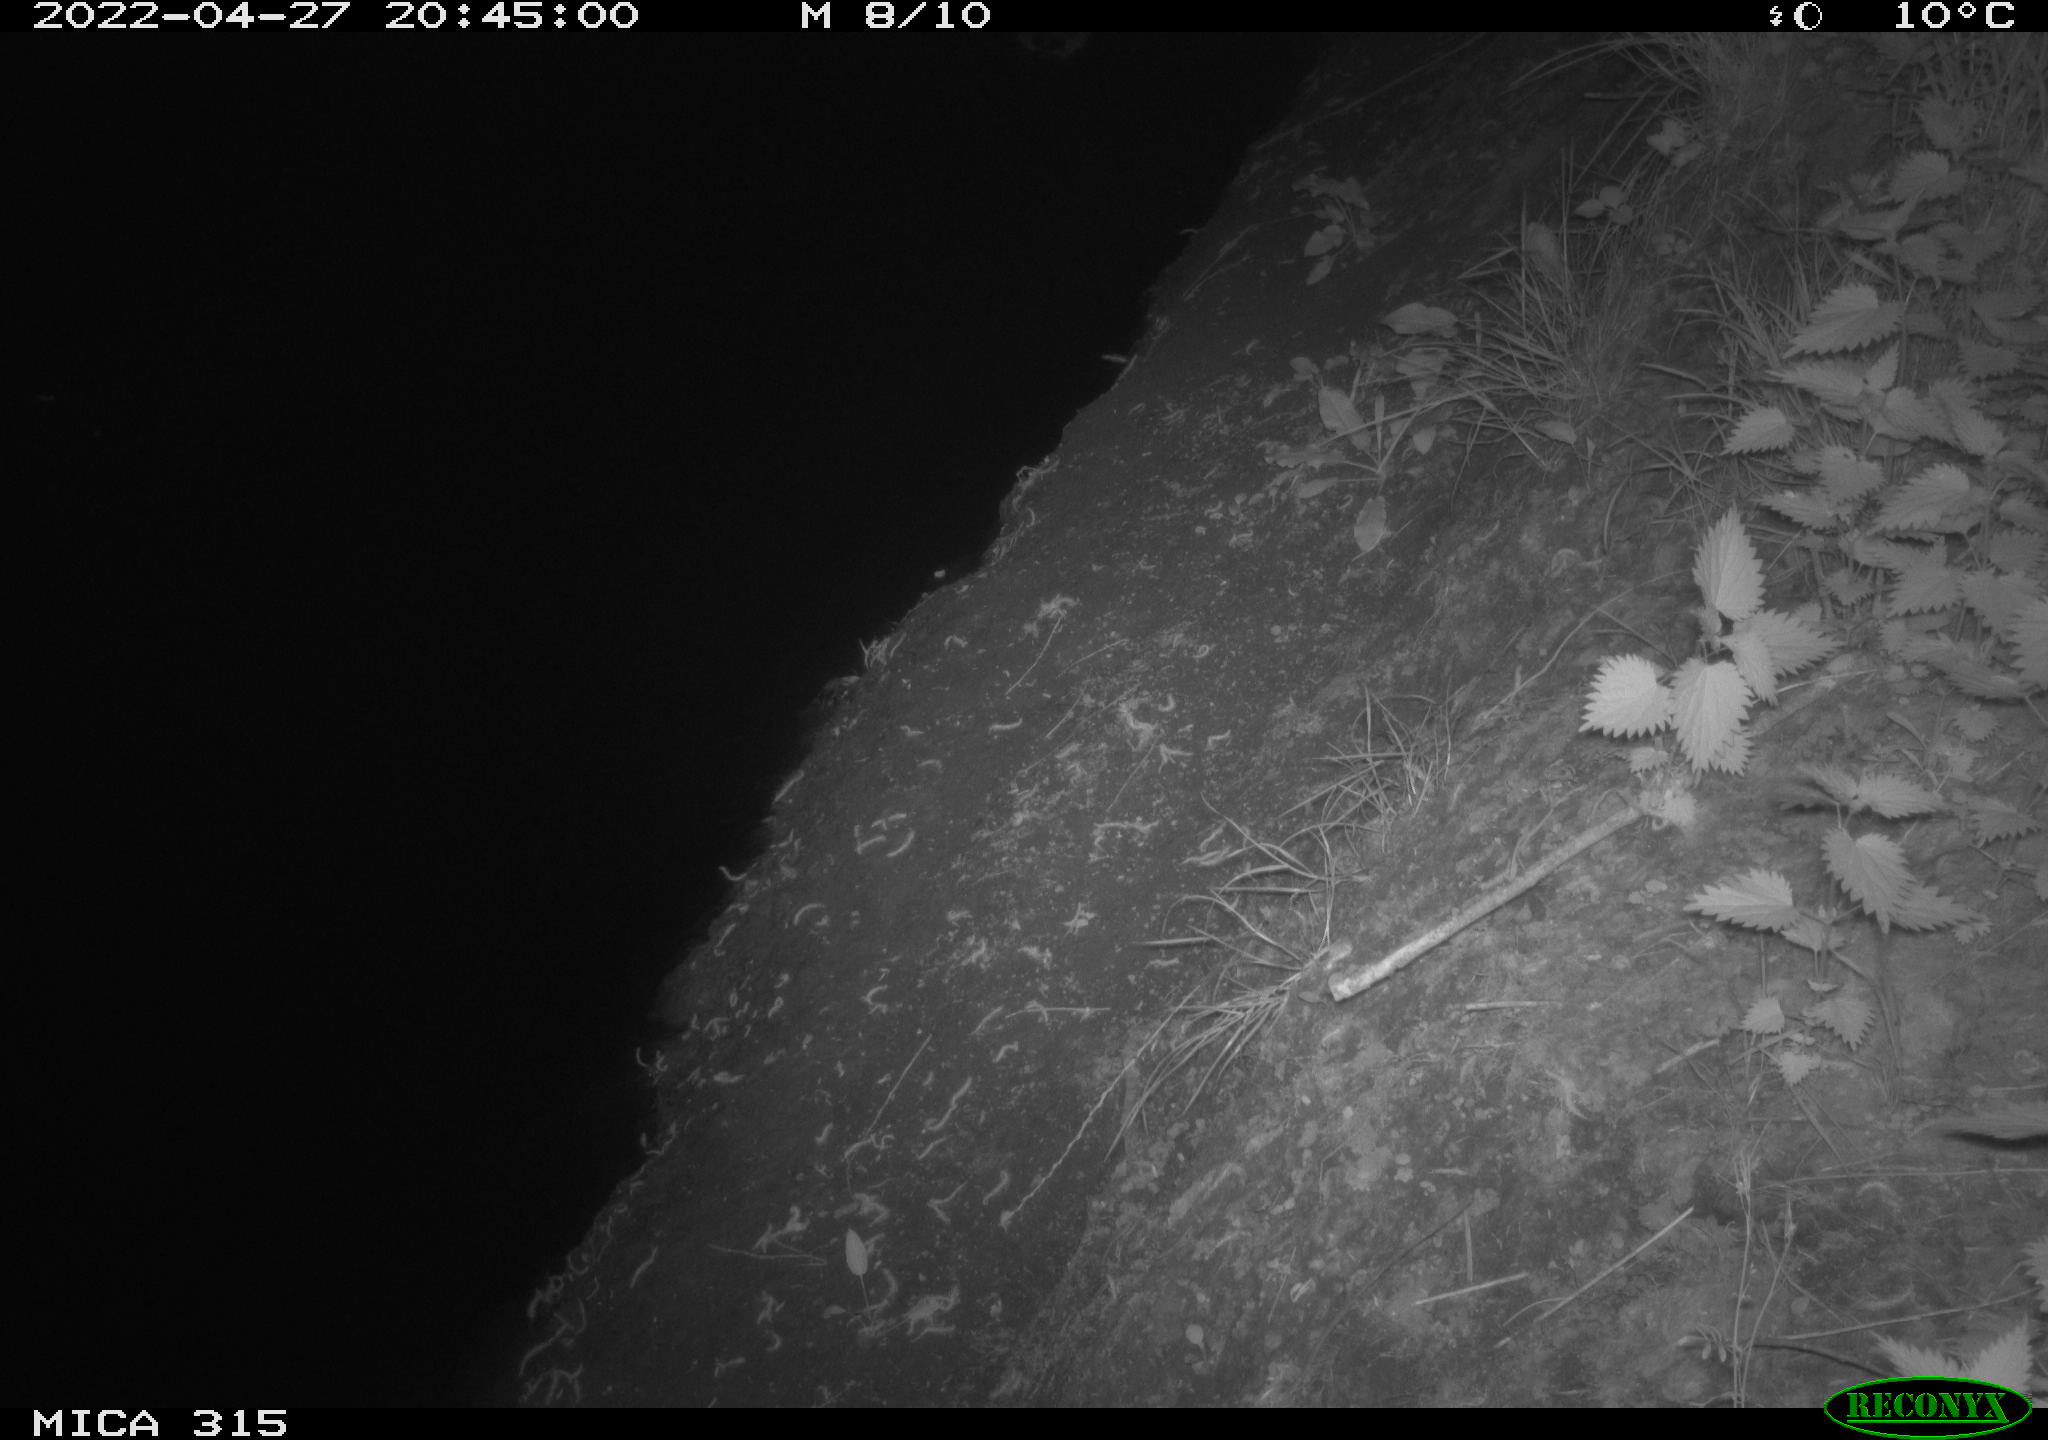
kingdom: Animalia
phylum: Chordata
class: Aves
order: Anseriformes
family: Anatidae
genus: Anas
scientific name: Anas platyrhynchos
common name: Mallard
